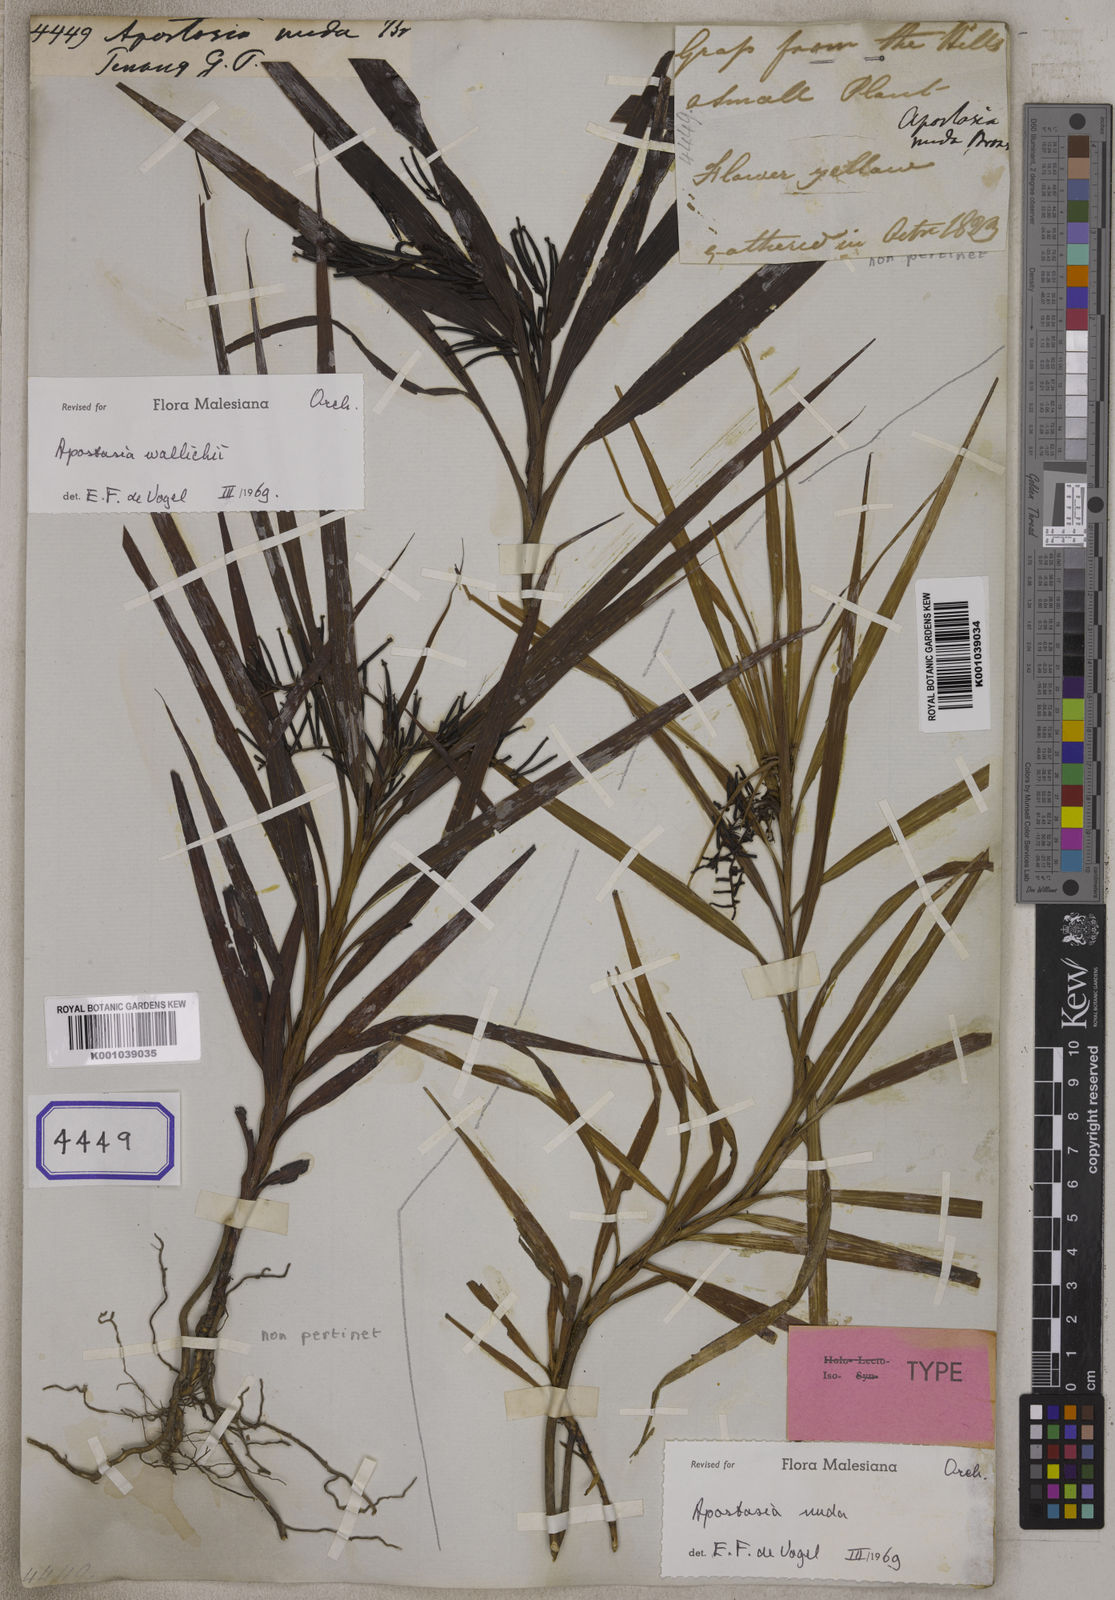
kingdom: Plantae
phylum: Tracheophyta
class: Liliopsida
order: Asparagales
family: Orchidaceae
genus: Apostasia
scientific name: Apostasia nuda
